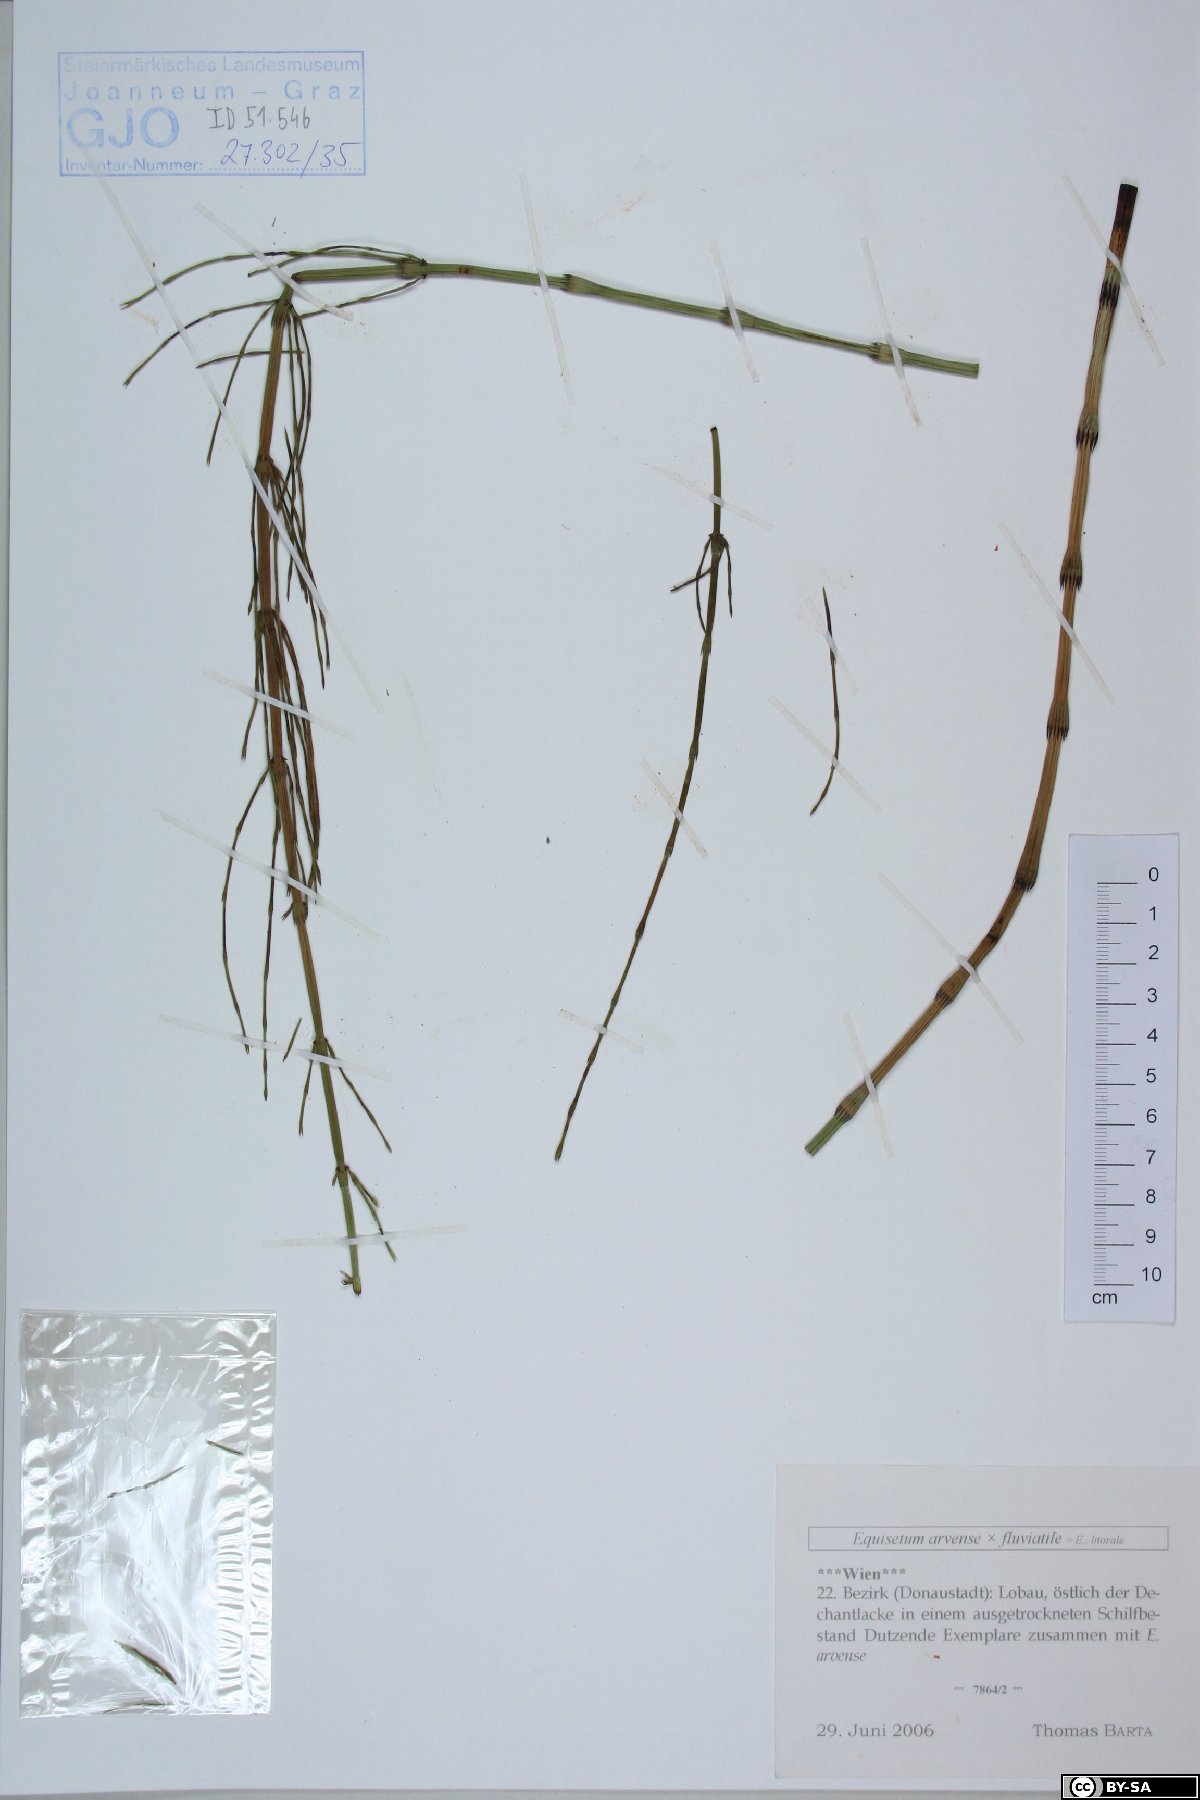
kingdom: Plantae
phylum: Tracheophyta
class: Polypodiopsida
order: Equisetales
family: Equisetaceae
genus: Equisetum
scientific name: Equisetum arvense
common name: Field horsetail
